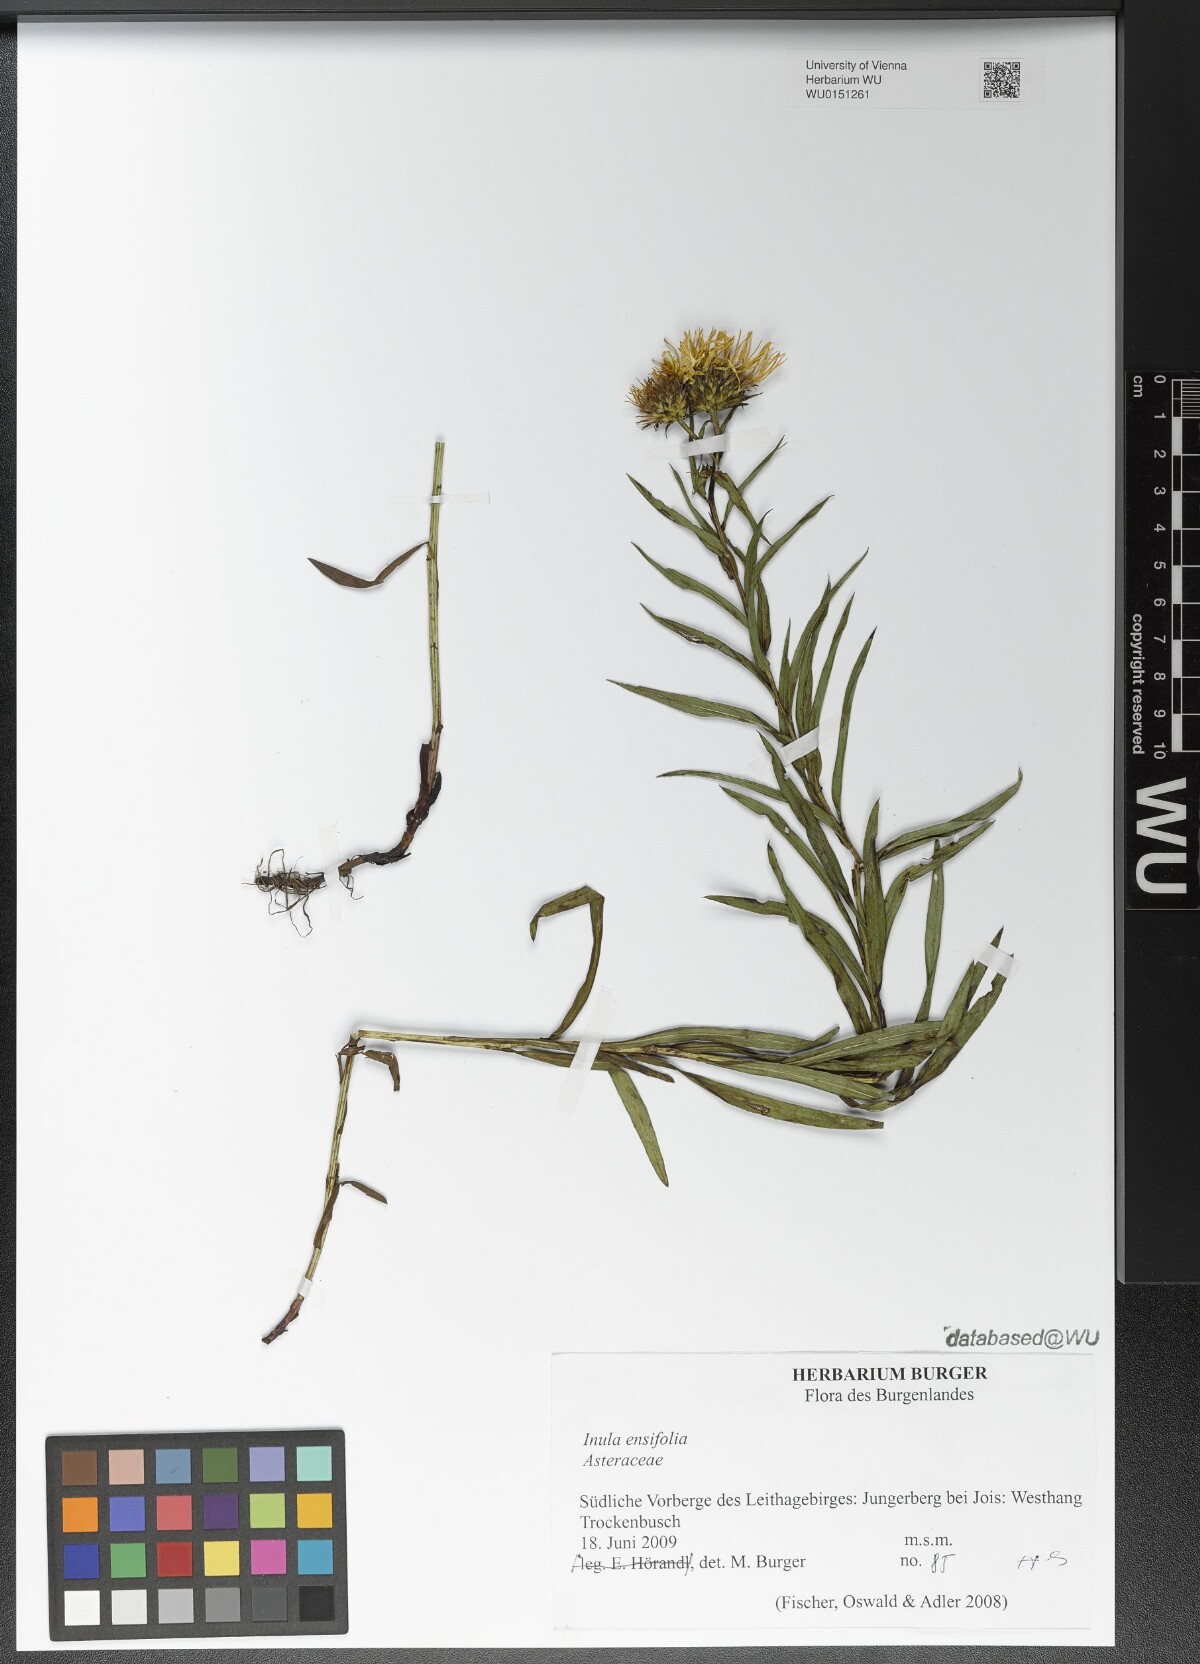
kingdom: Plantae
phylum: Tracheophyta
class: Magnoliopsida
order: Asterales
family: Asteraceae
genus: Pentanema
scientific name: Pentanema ensifolium
